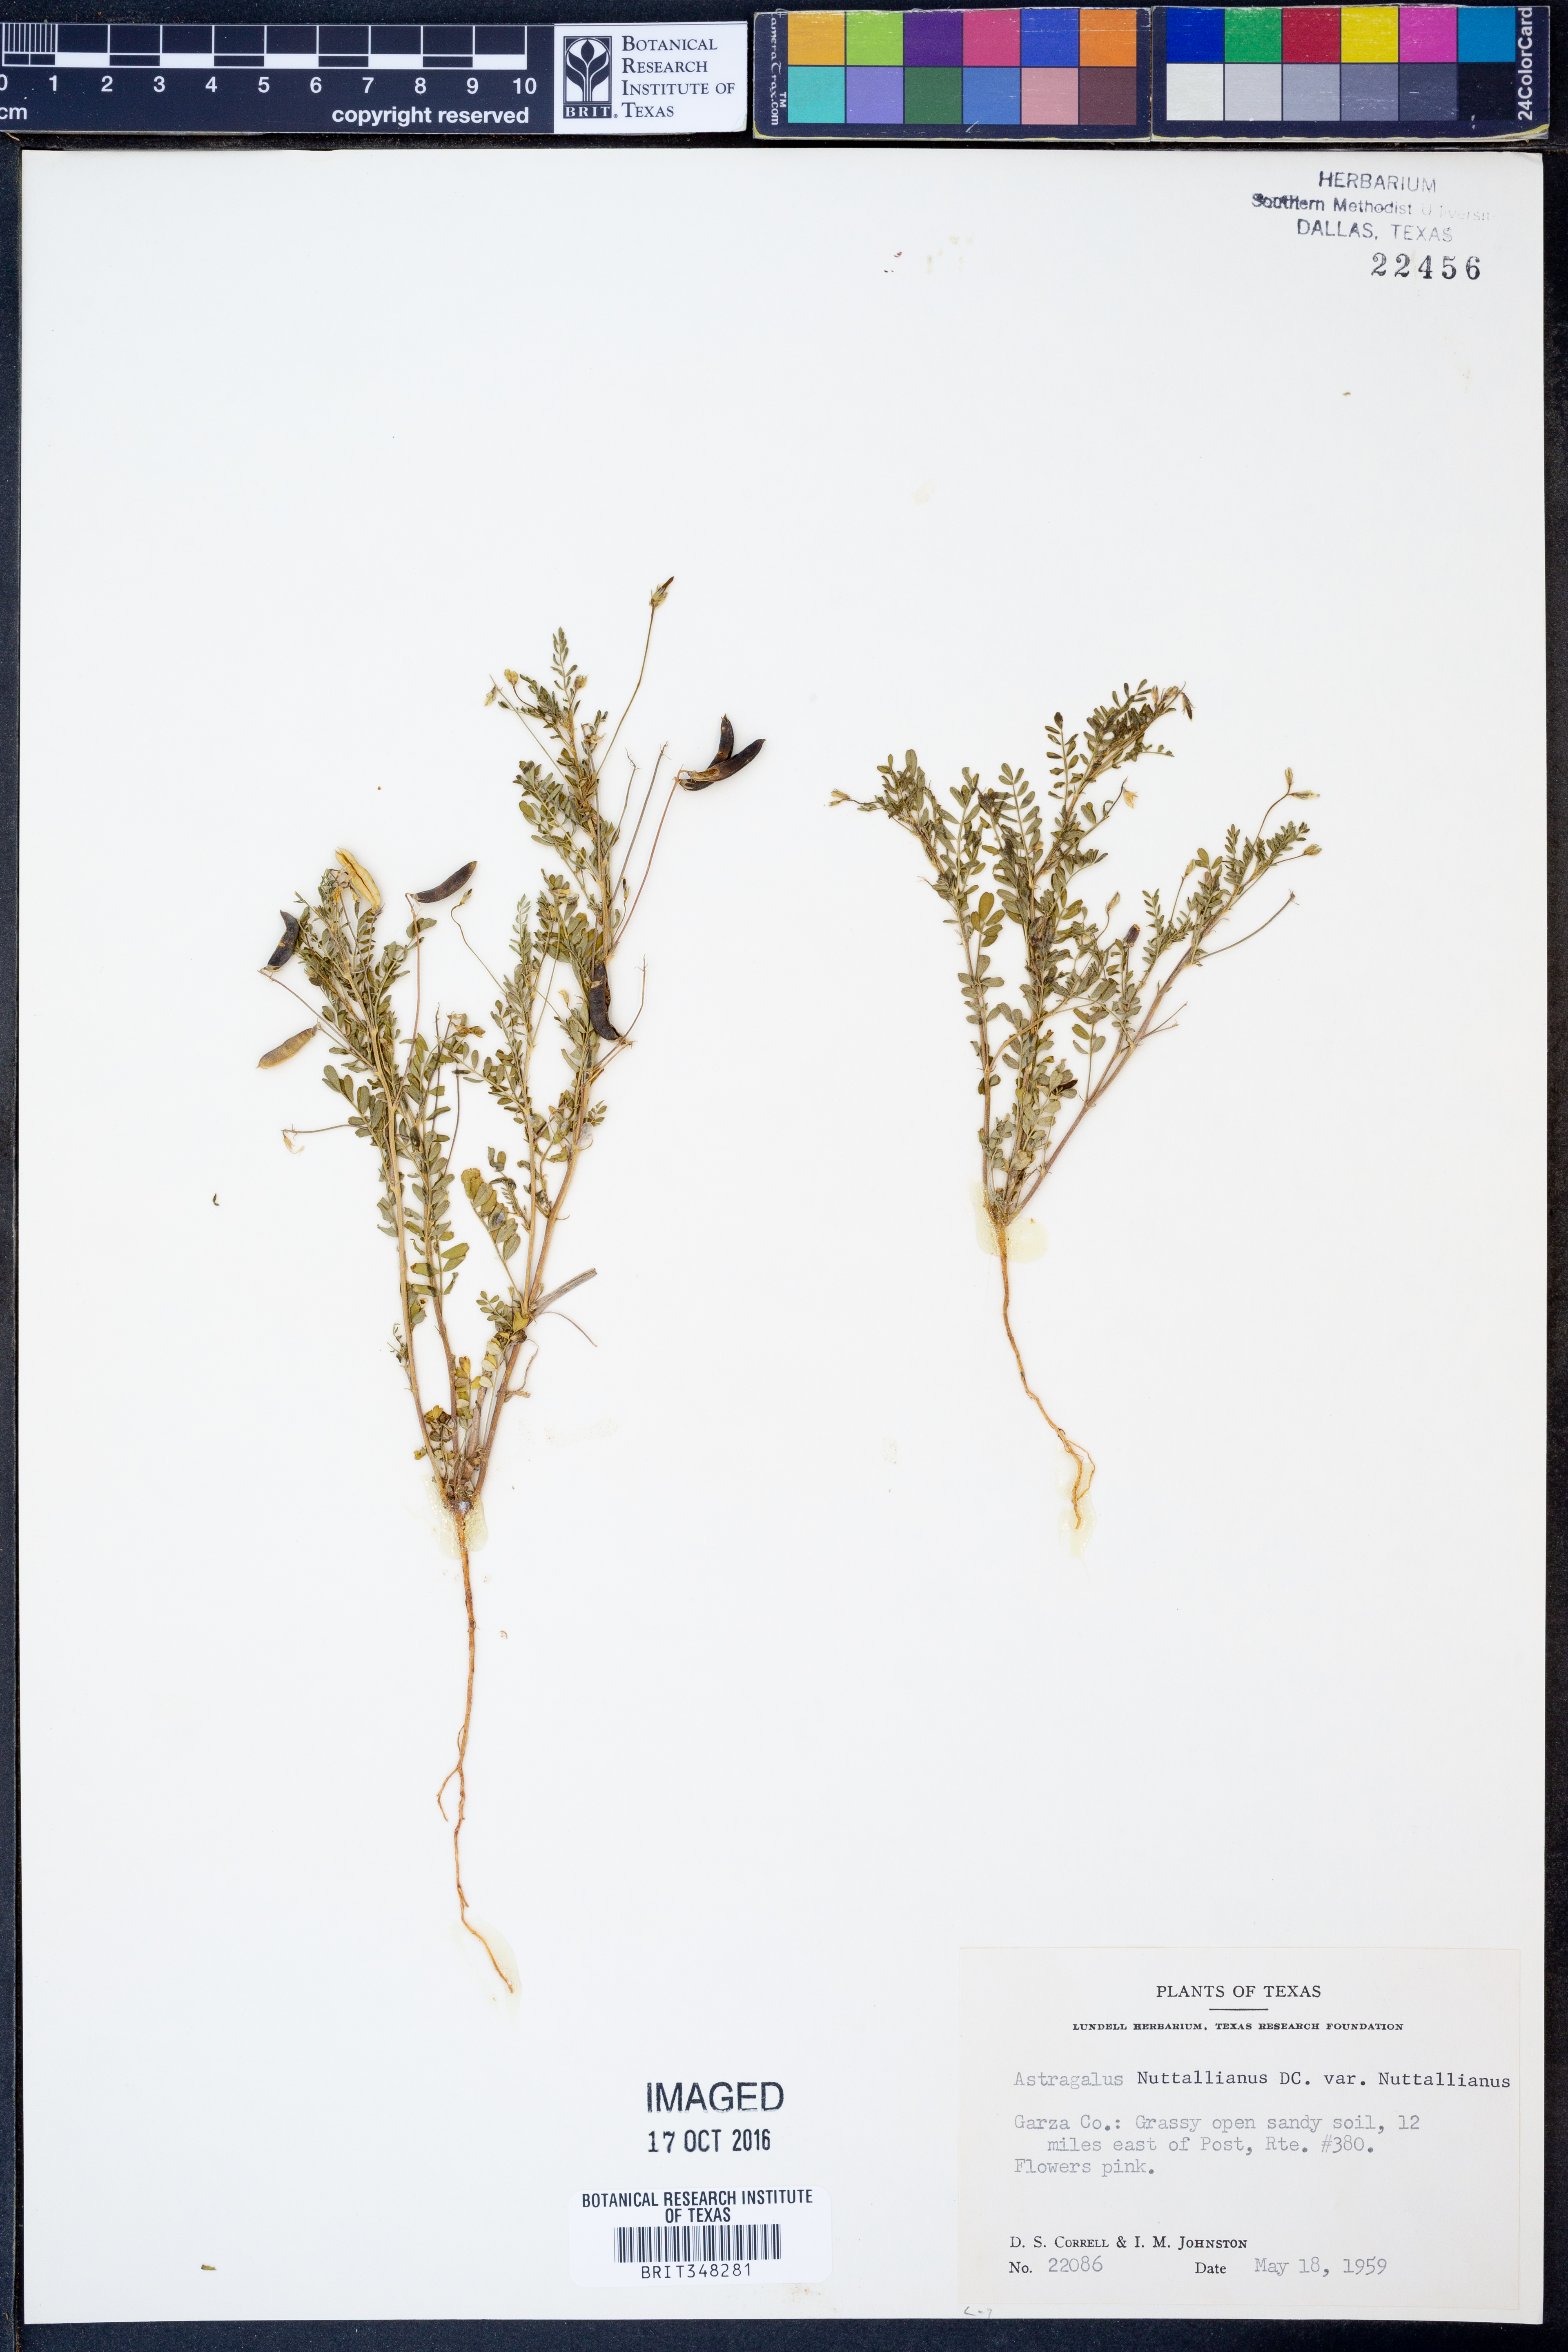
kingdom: Plantae
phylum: Tracheophyta
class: Magnoliopsida
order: Fabales
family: Fabaceae
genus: Astragalus
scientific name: Astragalus nuttallianus
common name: Smallflowered milkvetch
